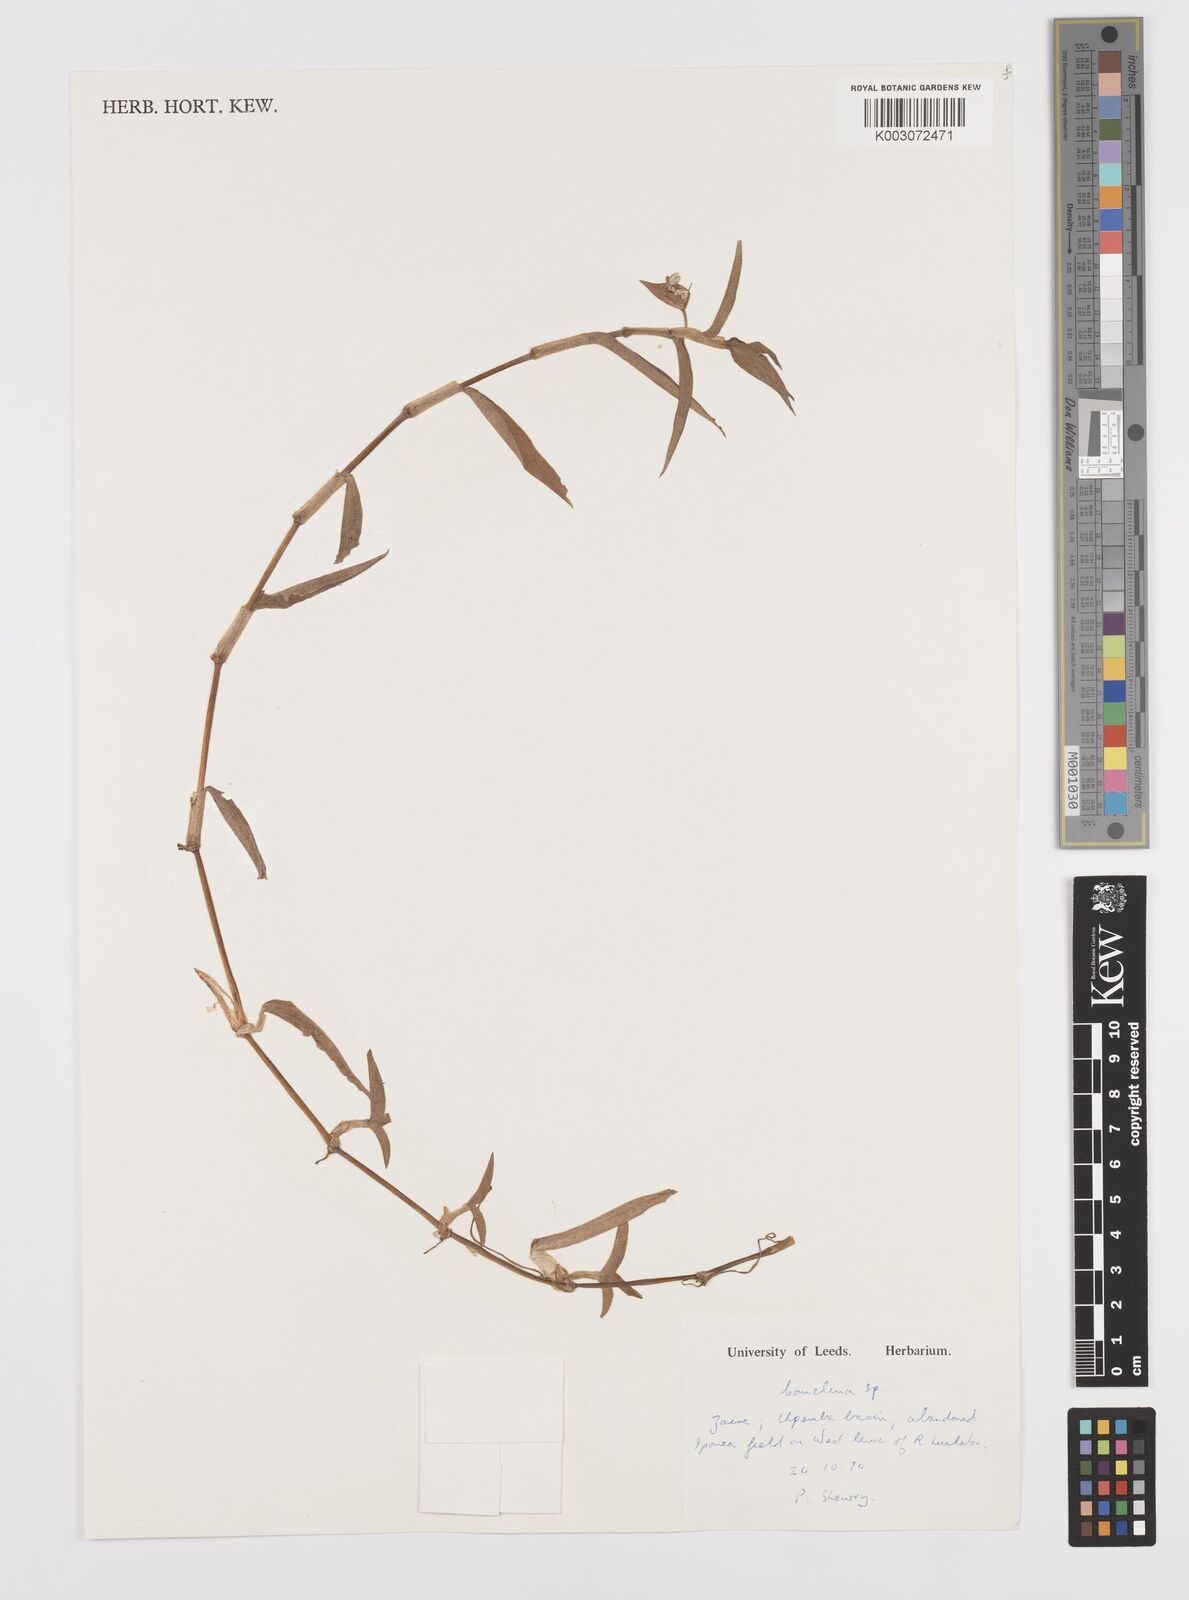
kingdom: Plantae
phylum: Tracheophyta
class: Liliopsida
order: Commelinales
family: Commelinaceae
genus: Commelina
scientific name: Commelina
